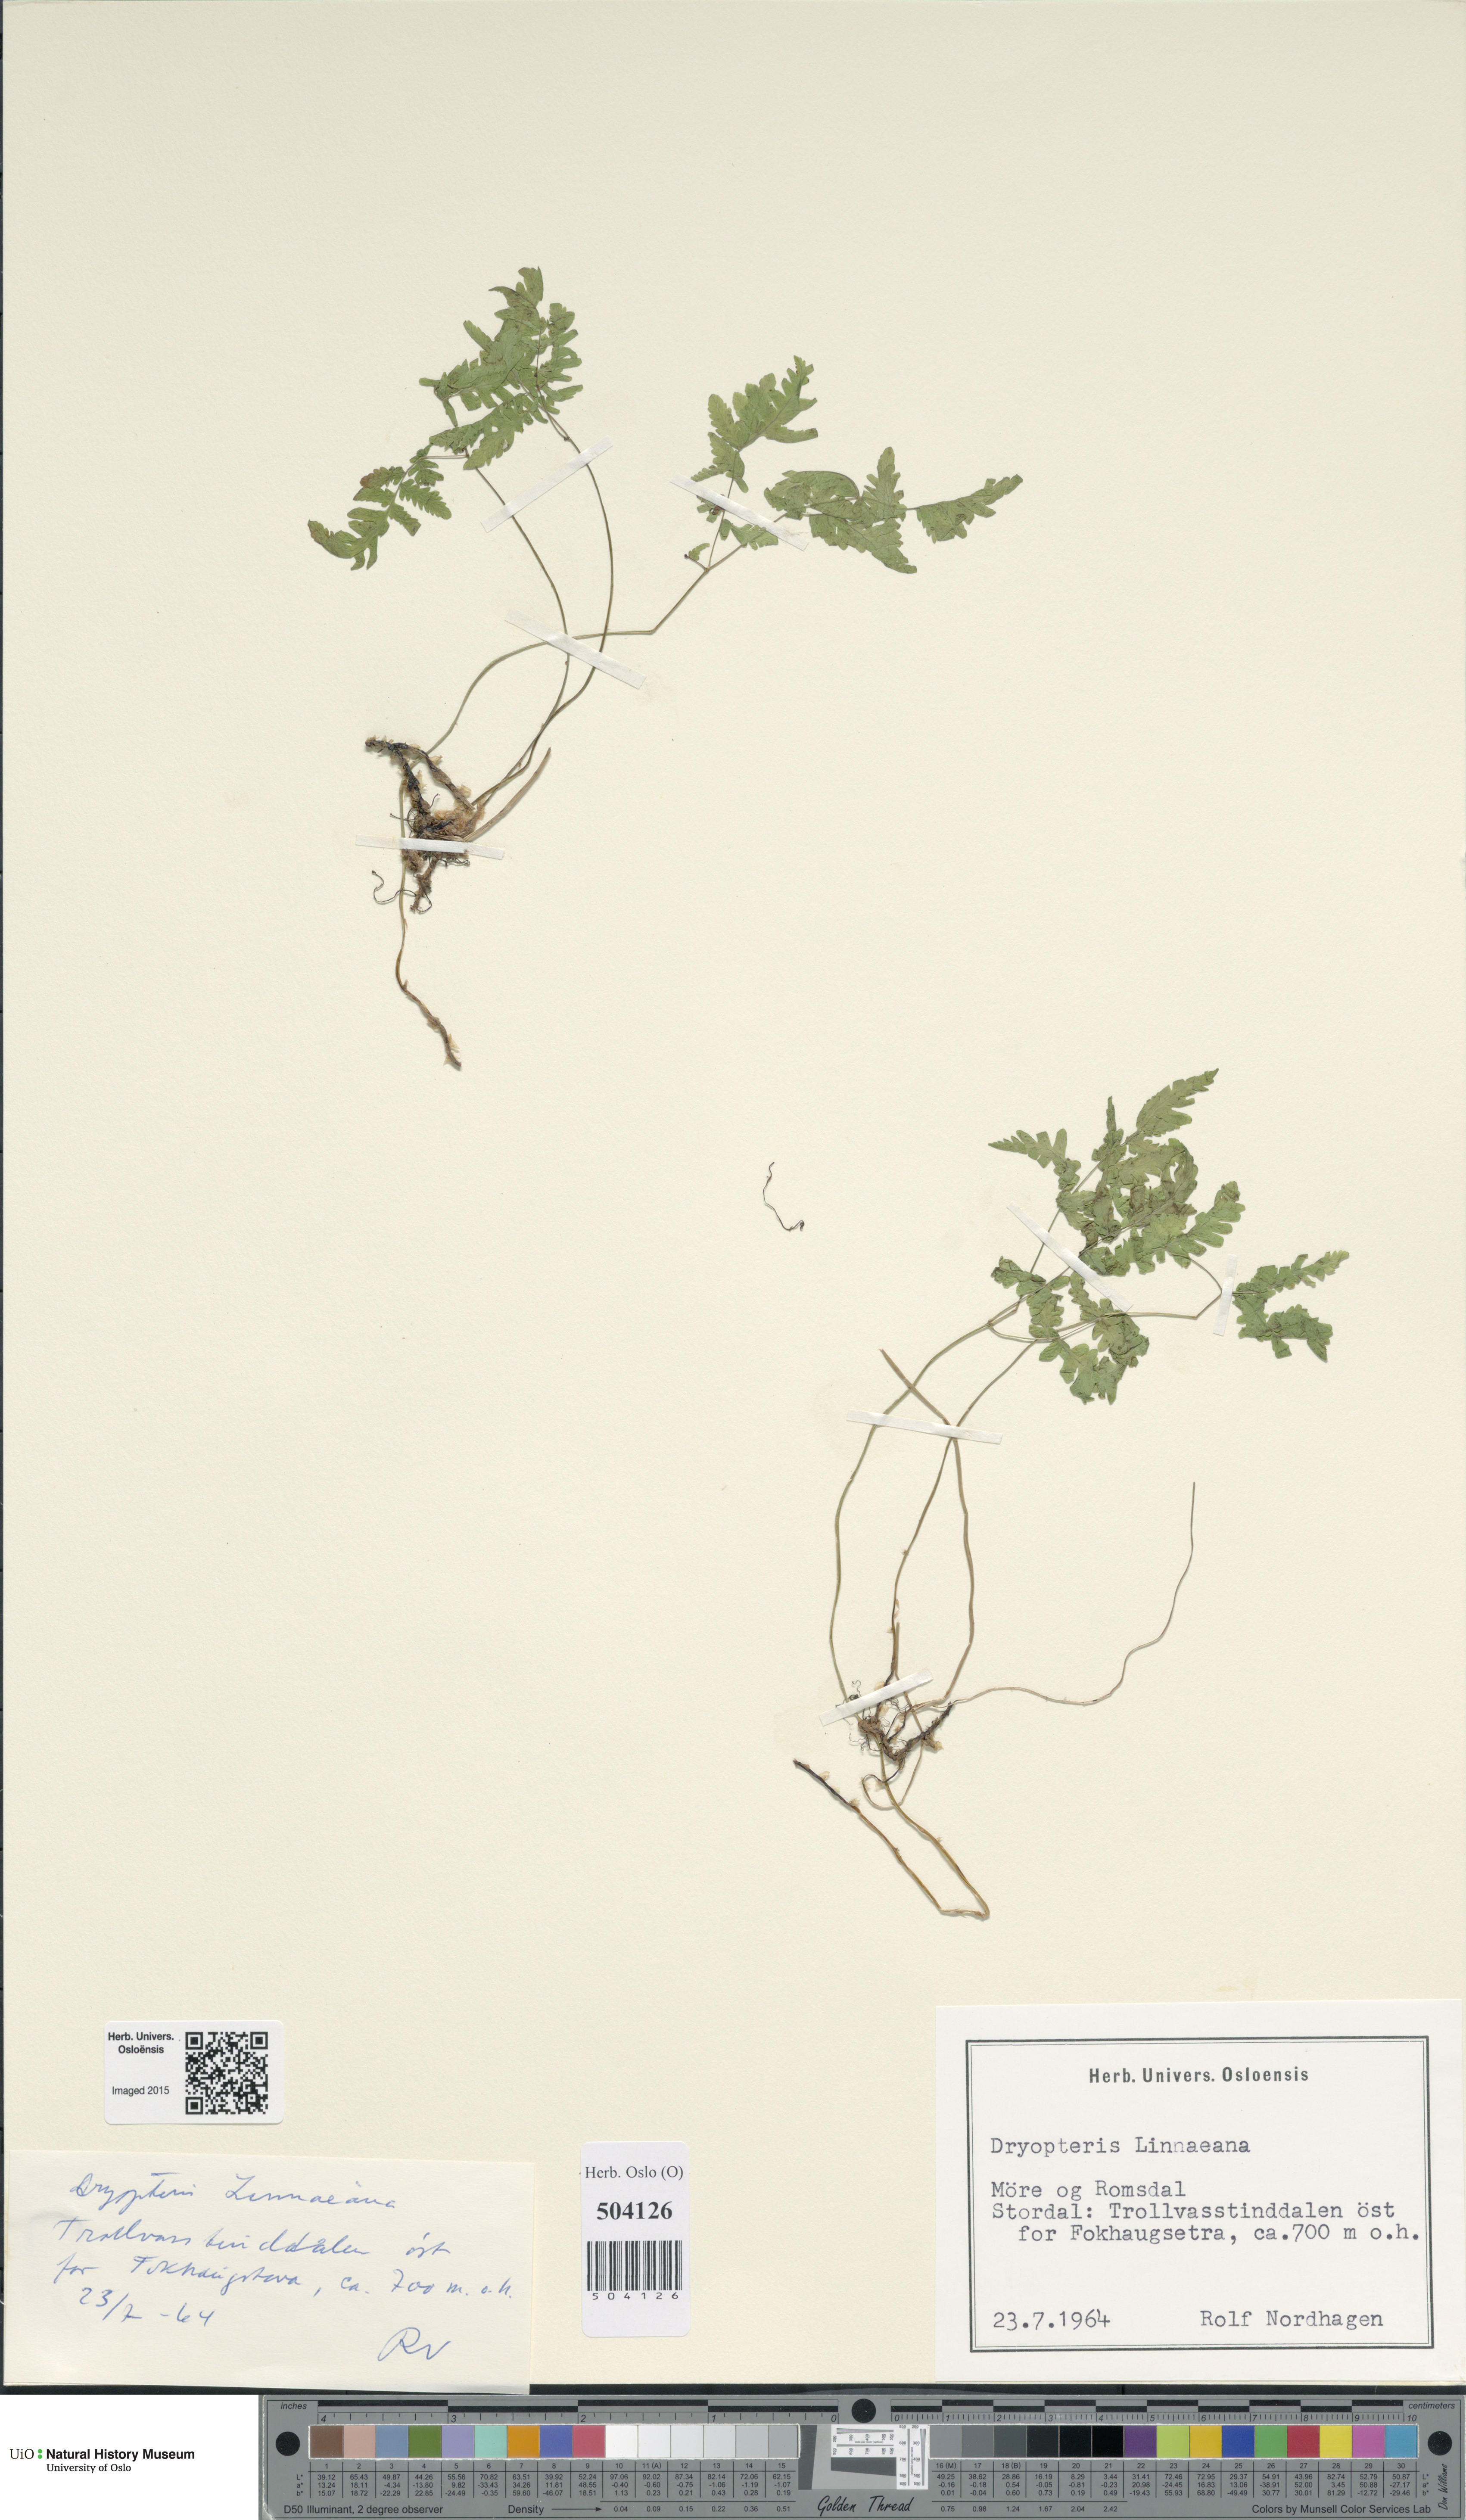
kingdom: Plantae
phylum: Tracheophyta
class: Polypodiopsida
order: Polypodiales
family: Cystopteridaceae
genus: Gymnocarpium
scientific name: Gymnocarpium dryopteris
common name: Oak fern
